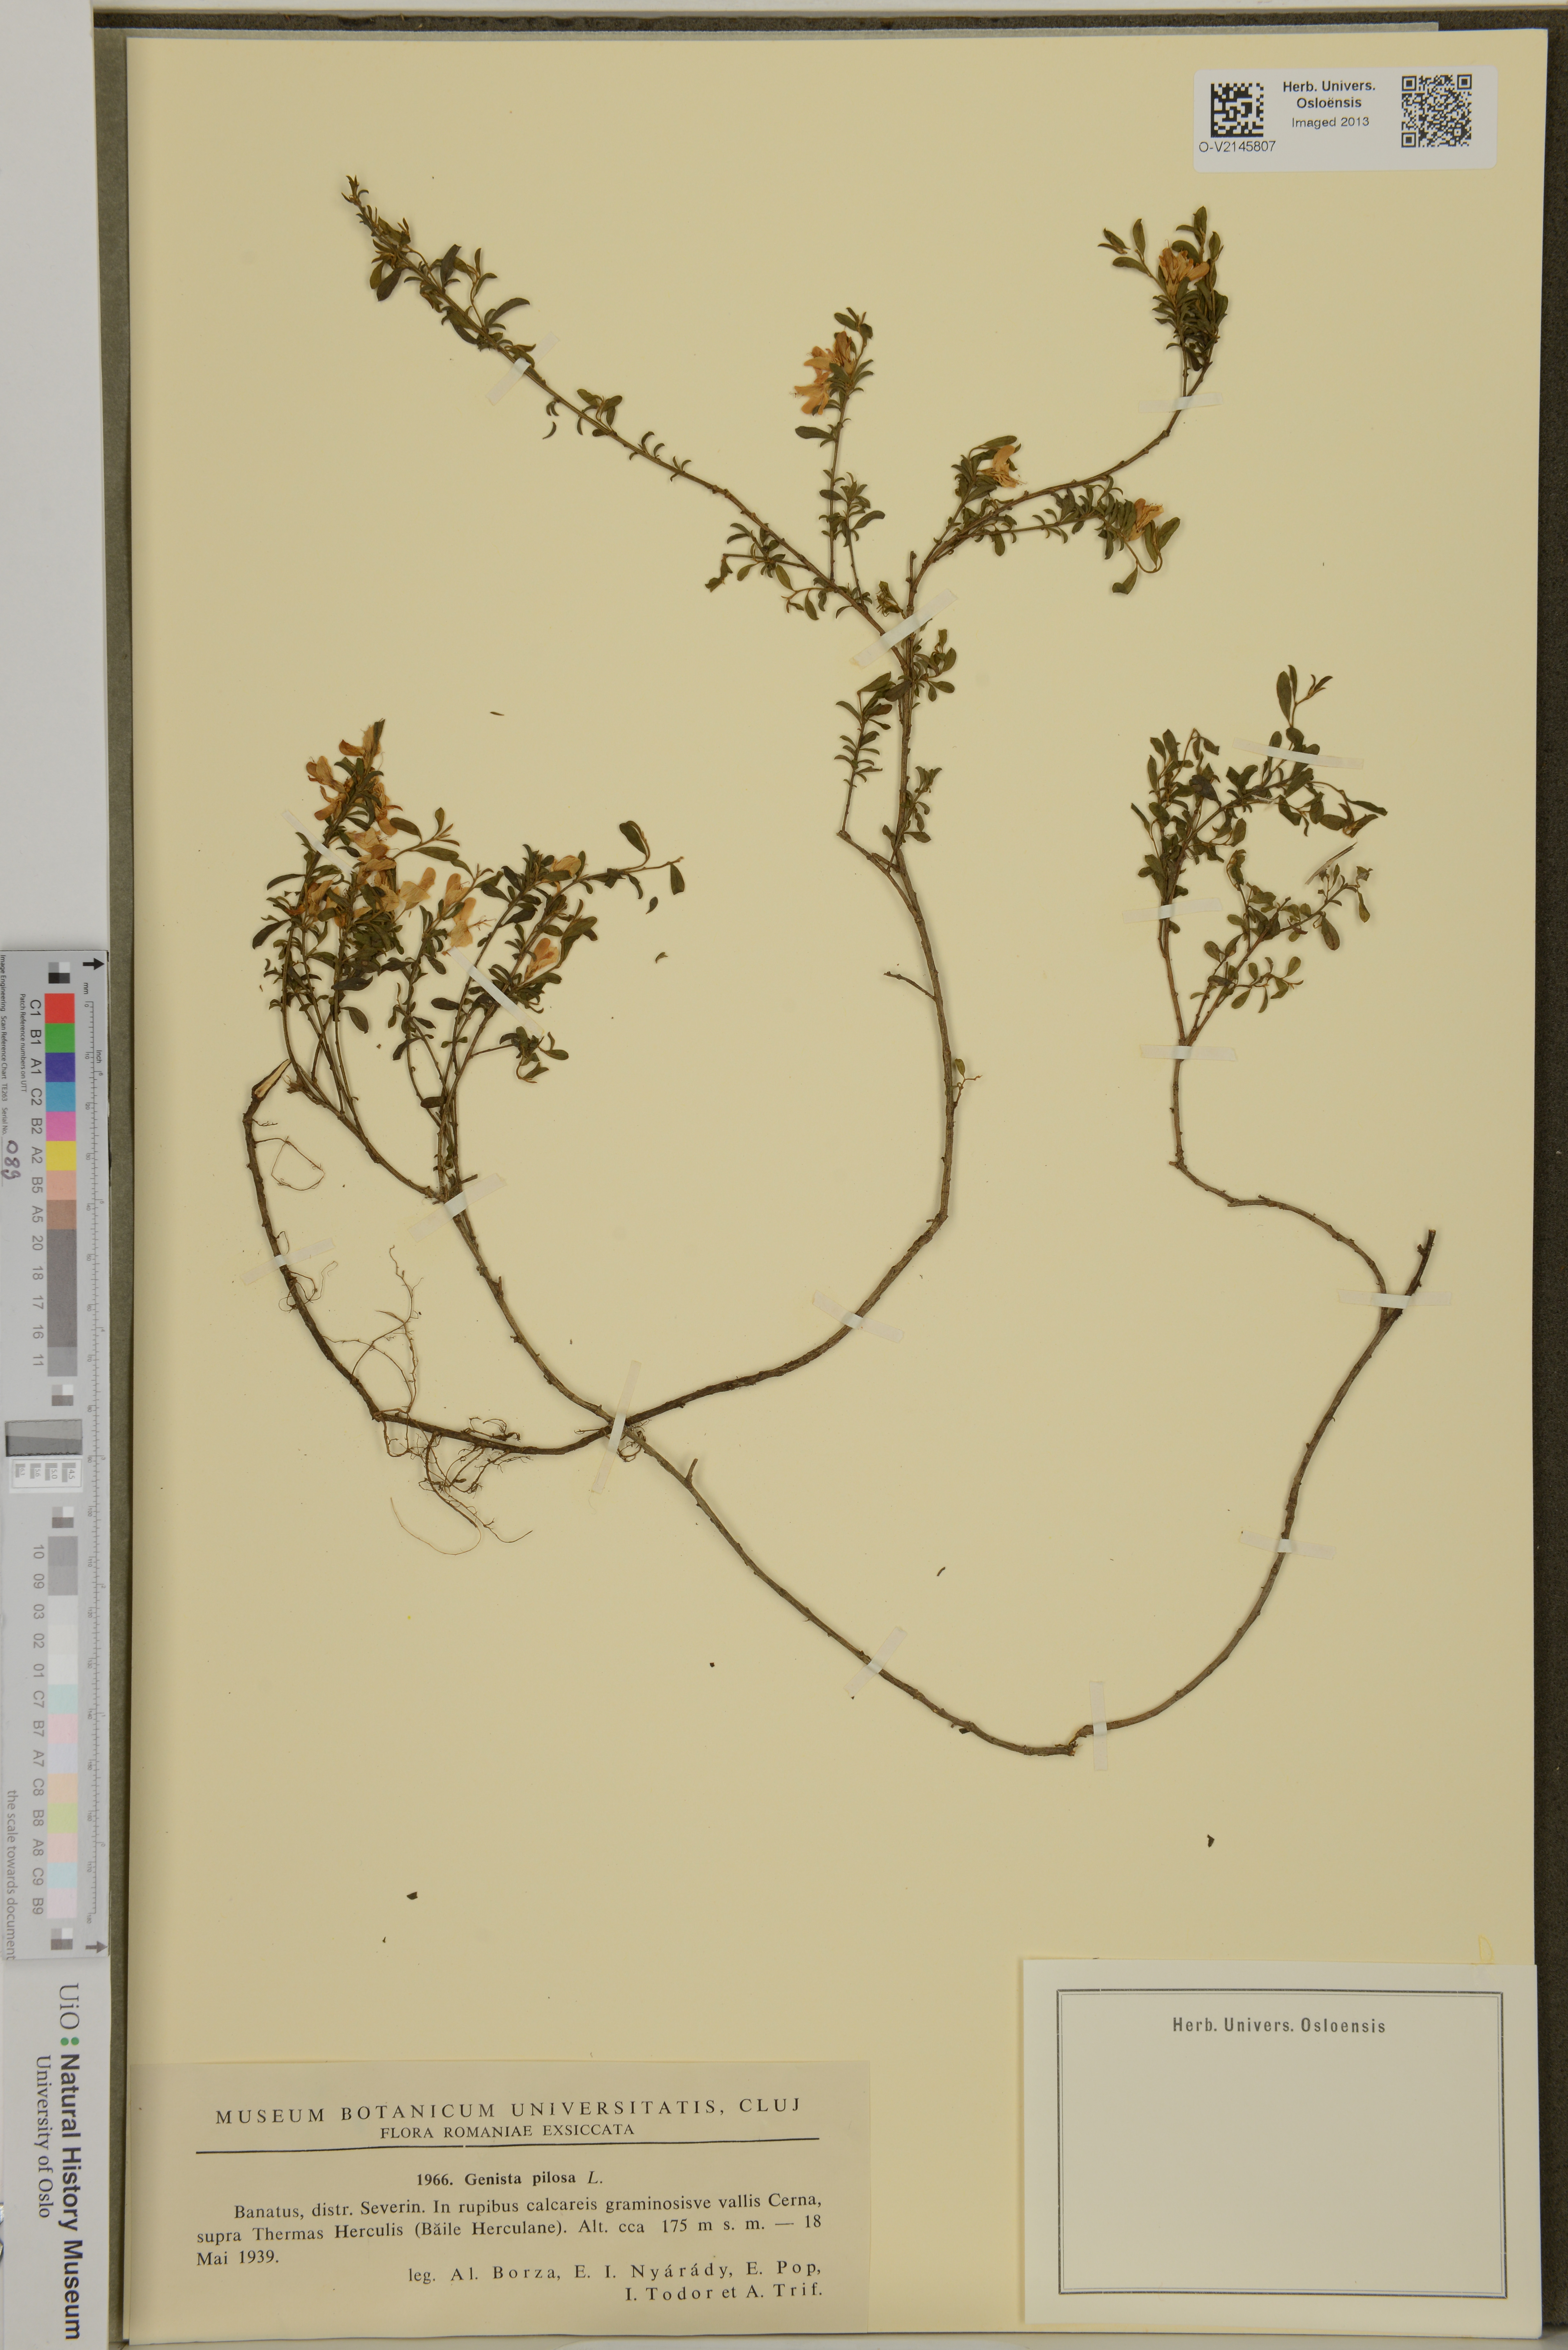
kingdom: Plantae
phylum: Tracheophyta
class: Magnoliopsida
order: Fabales
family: Fabaceae
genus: Genista
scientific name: Genista pilosa
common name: Hairy greenweed
